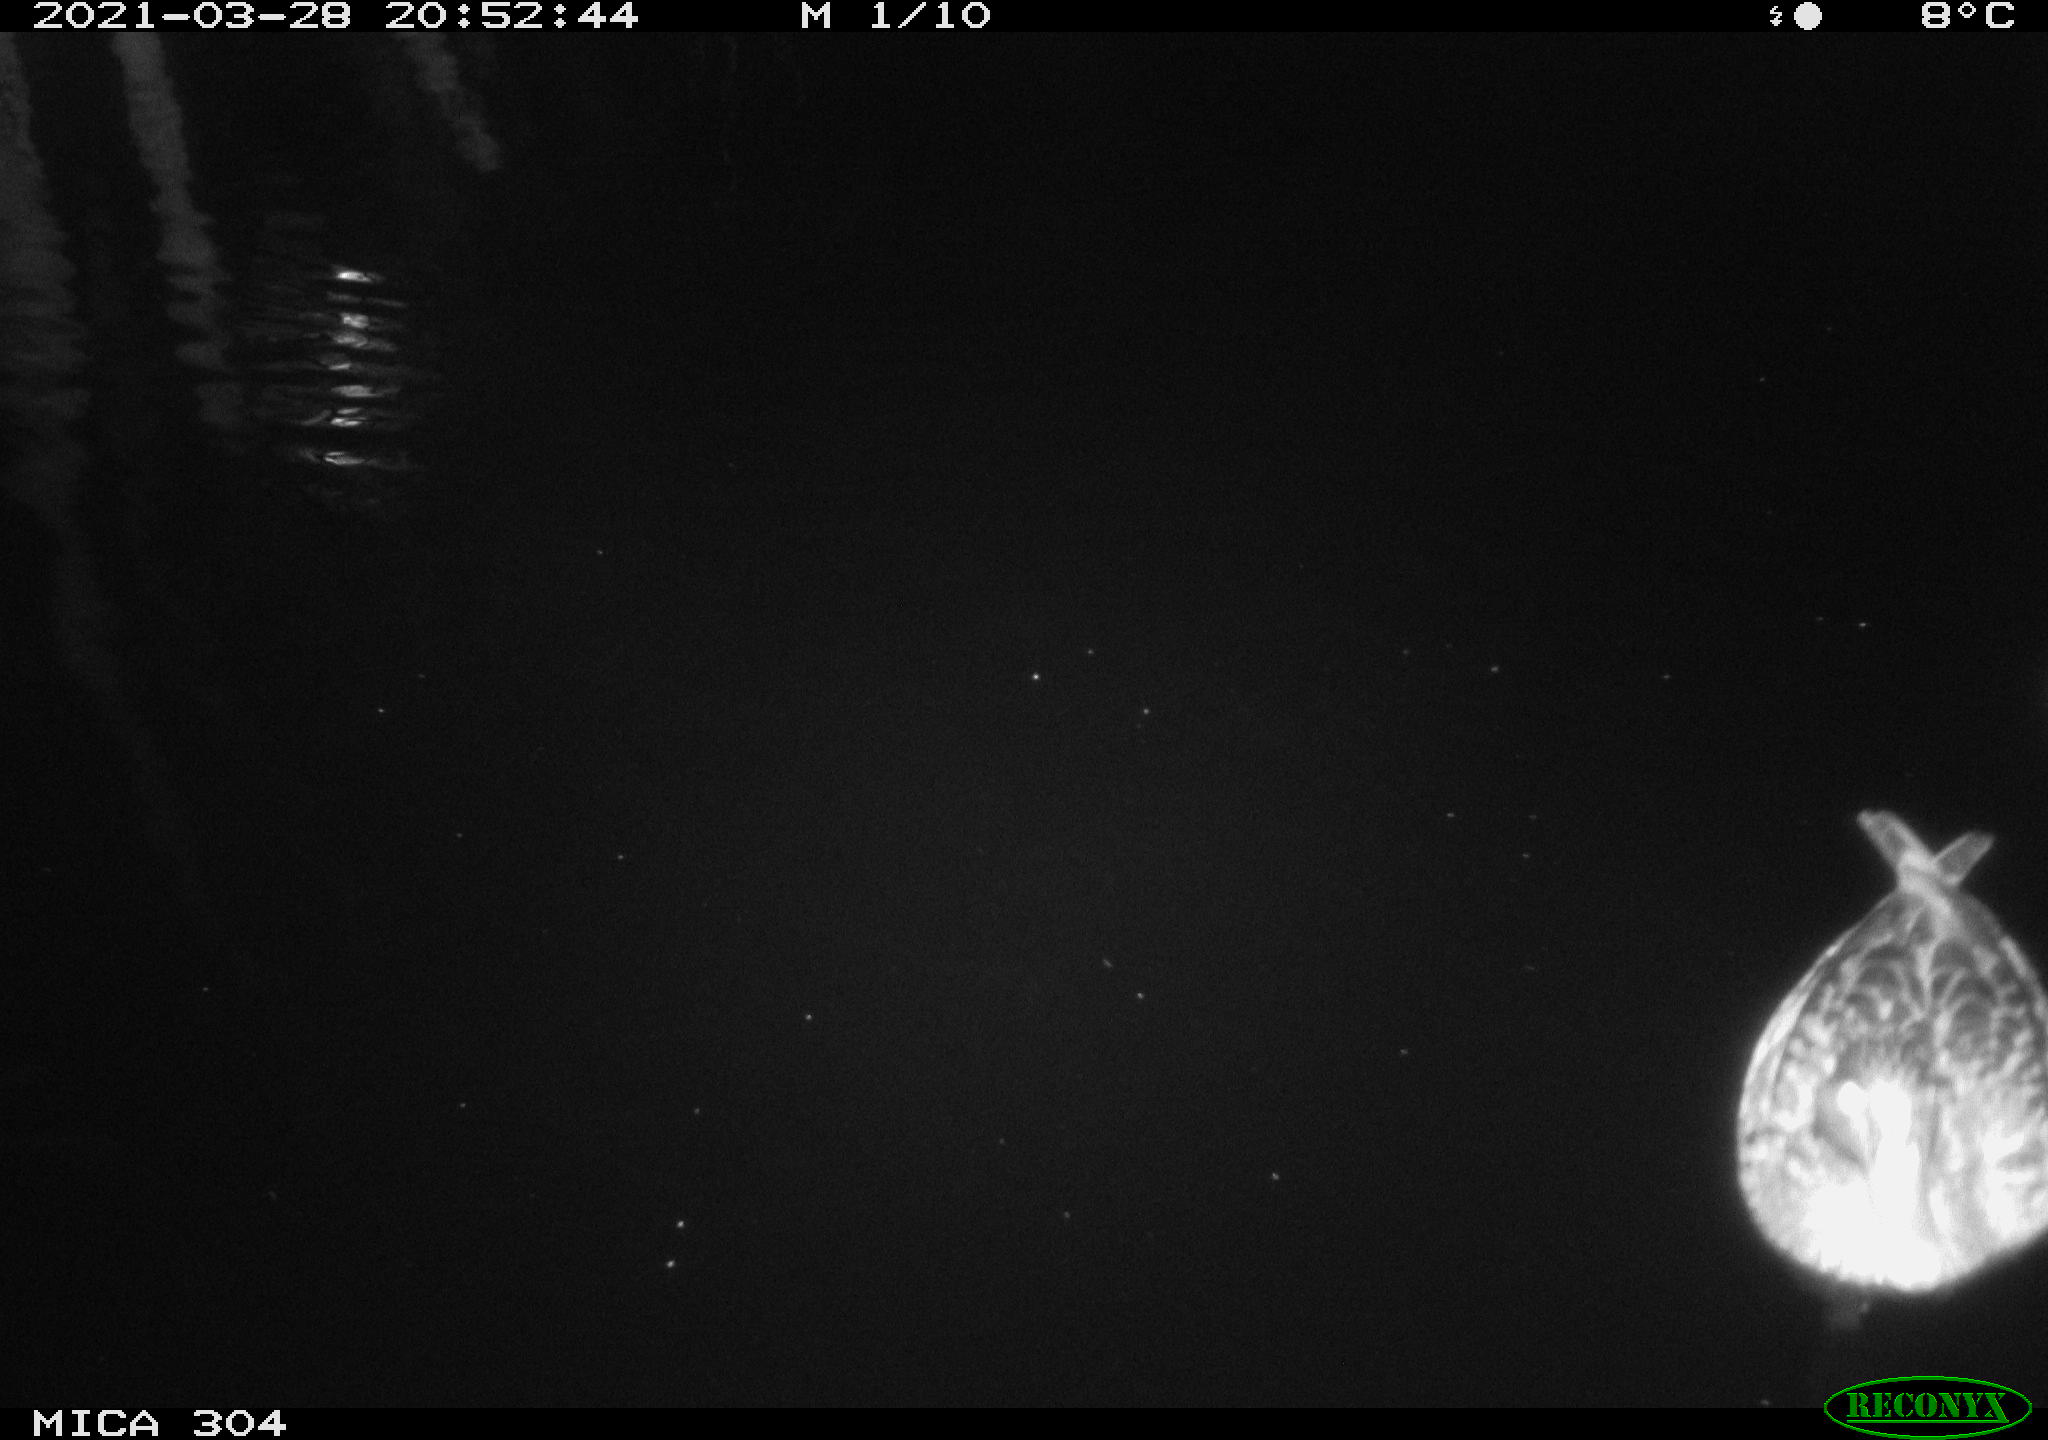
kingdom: Animalia
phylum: Chordata
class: Aves
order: Anseriformes
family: Anatidae
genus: Anas
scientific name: Anas platyrhynchos
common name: Mallard
